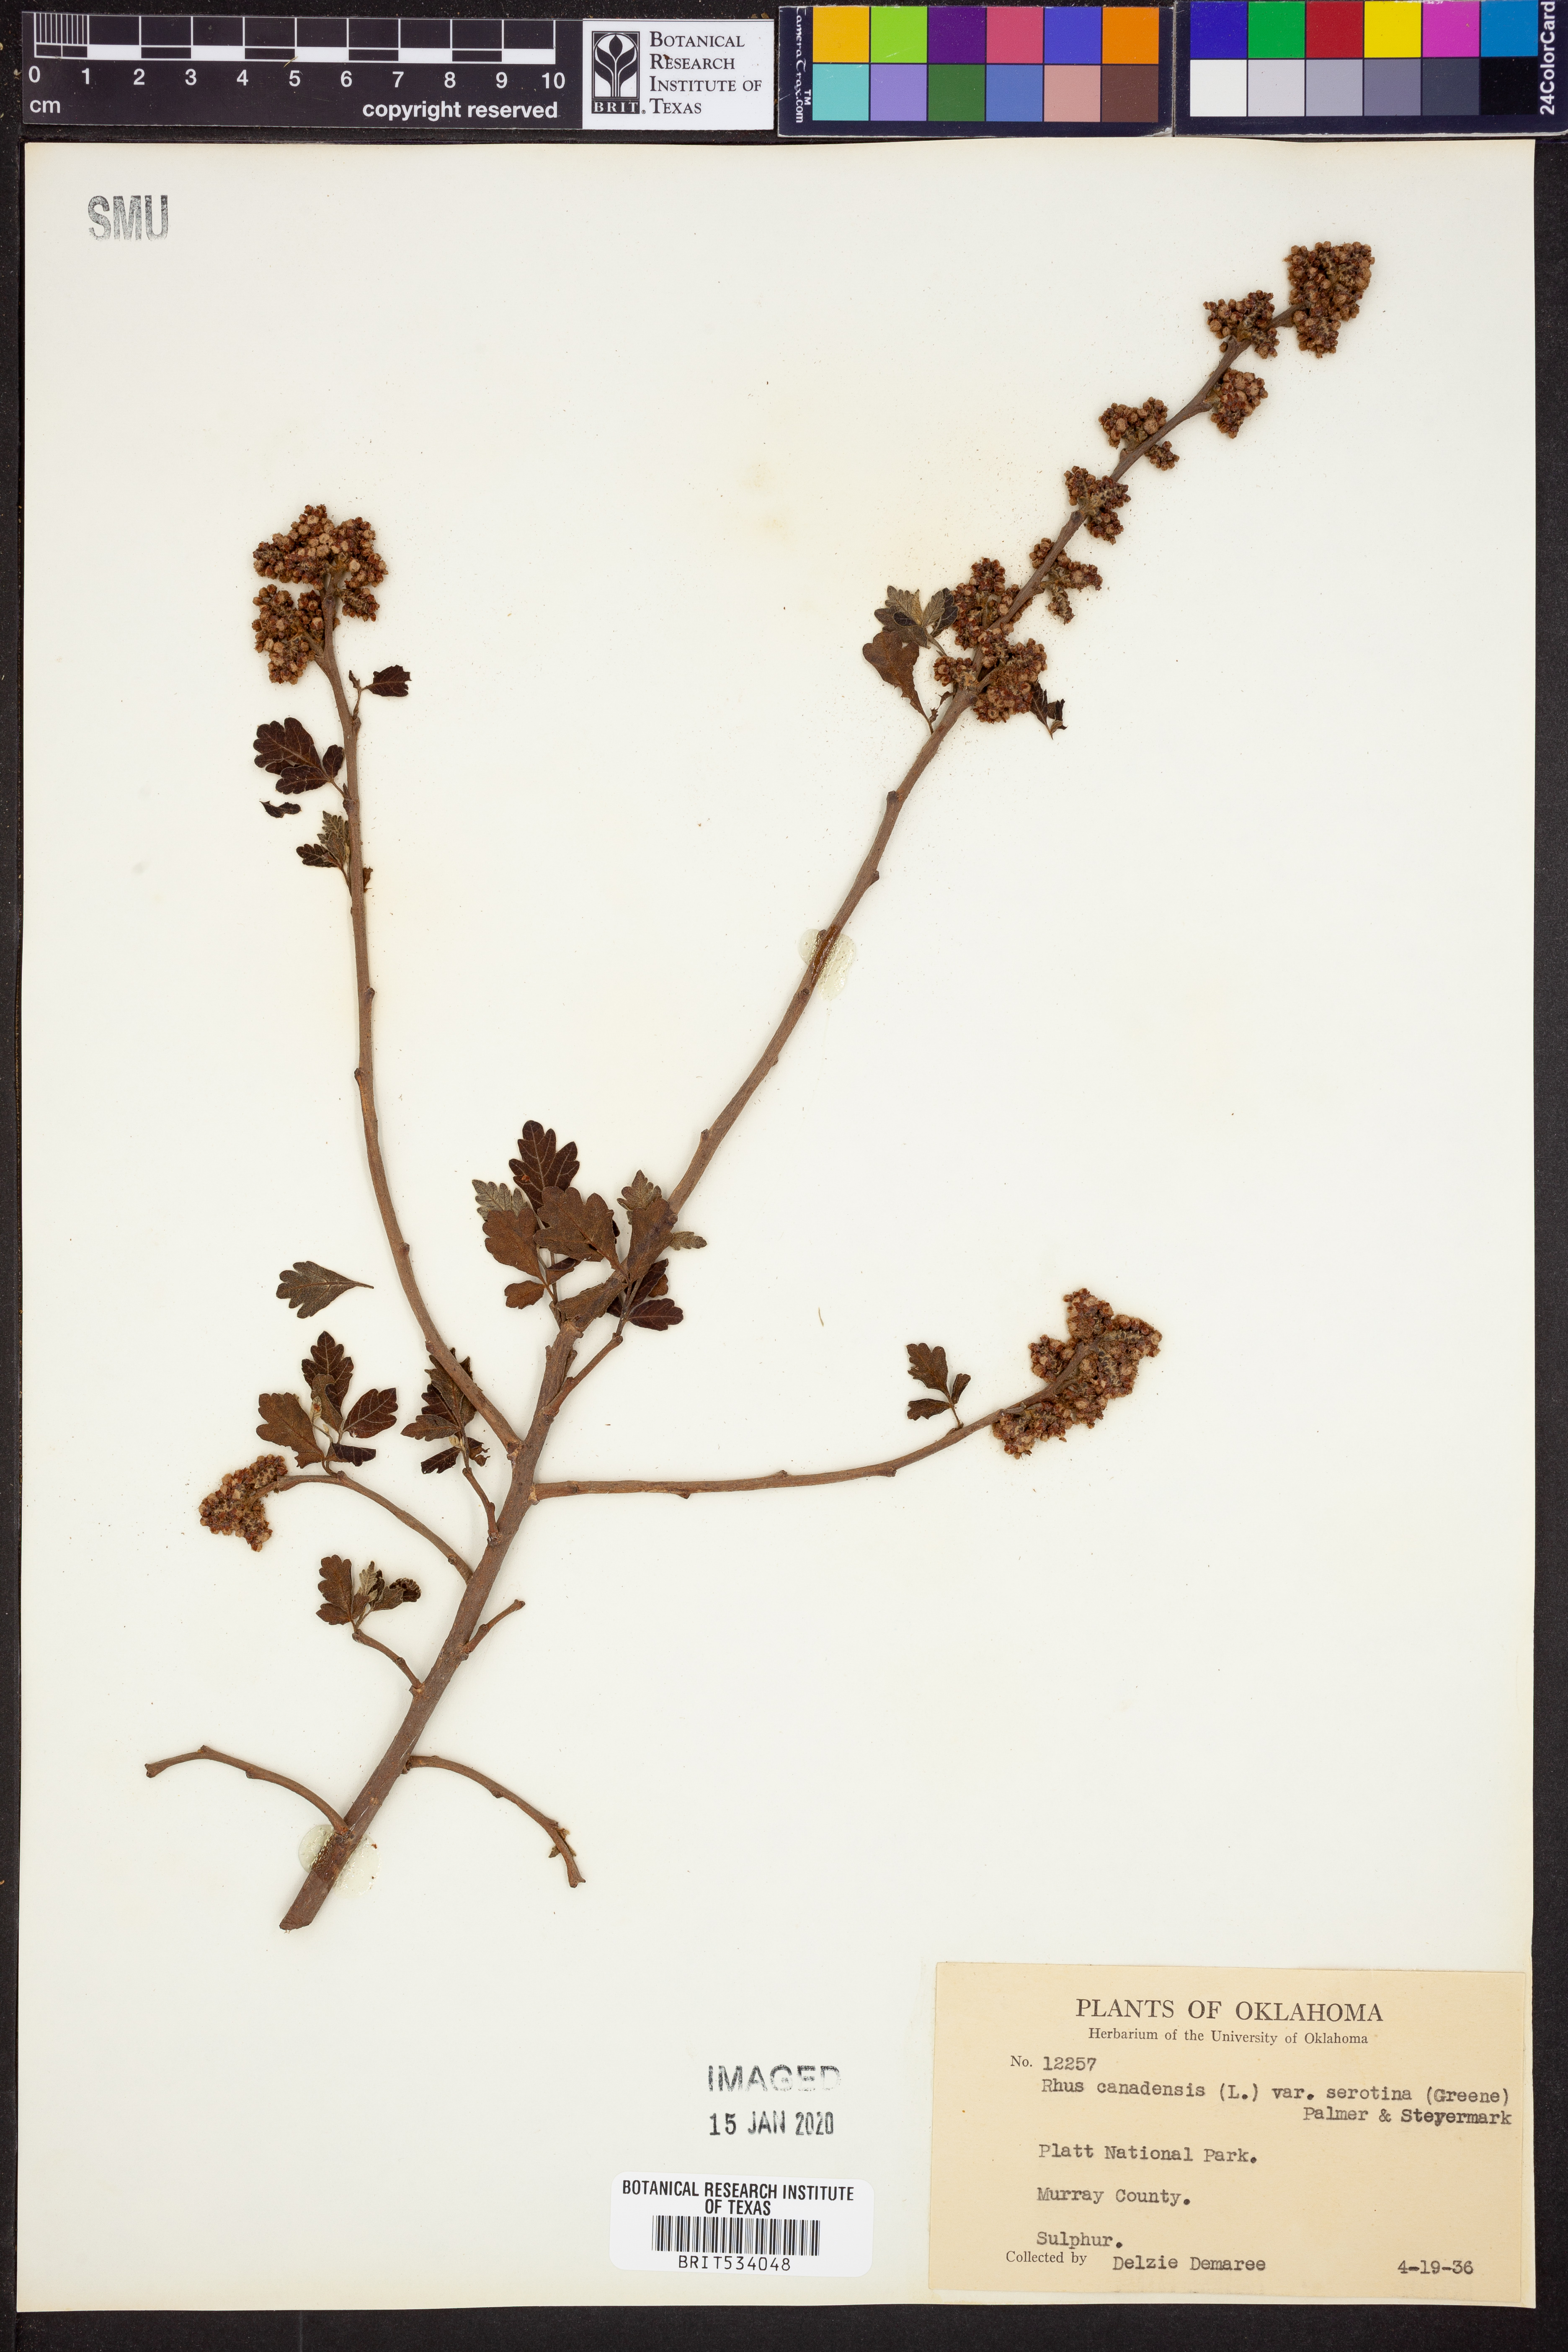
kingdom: Plantae
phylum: Tracheophyta
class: Magnoliopsida
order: Sapindales
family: Anacardiaceae
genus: Rhus
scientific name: Rhus aromatica
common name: Aromatic sumac
